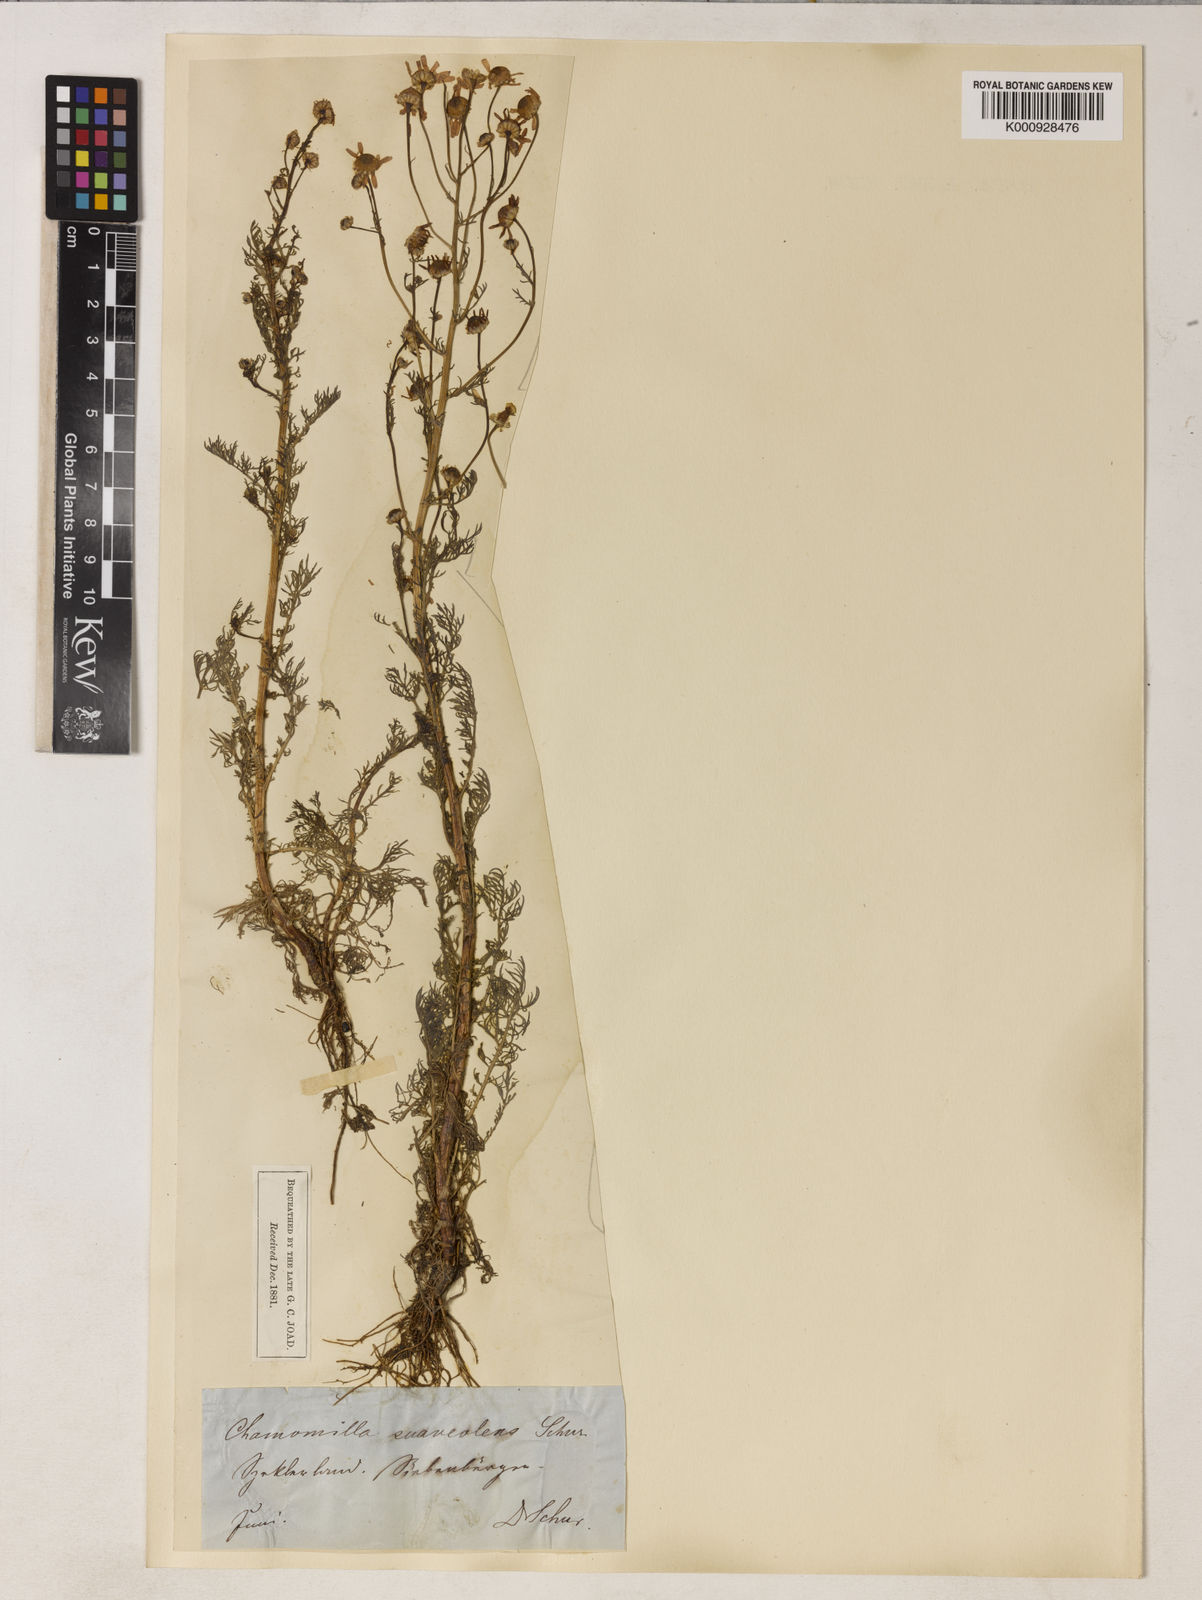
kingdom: Plantae
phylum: Tracheophyta
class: Magnoliopsida
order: Asterales
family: Asteraceae
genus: Matricaria
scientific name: Matricaria chamomilla
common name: Scented mayweed
